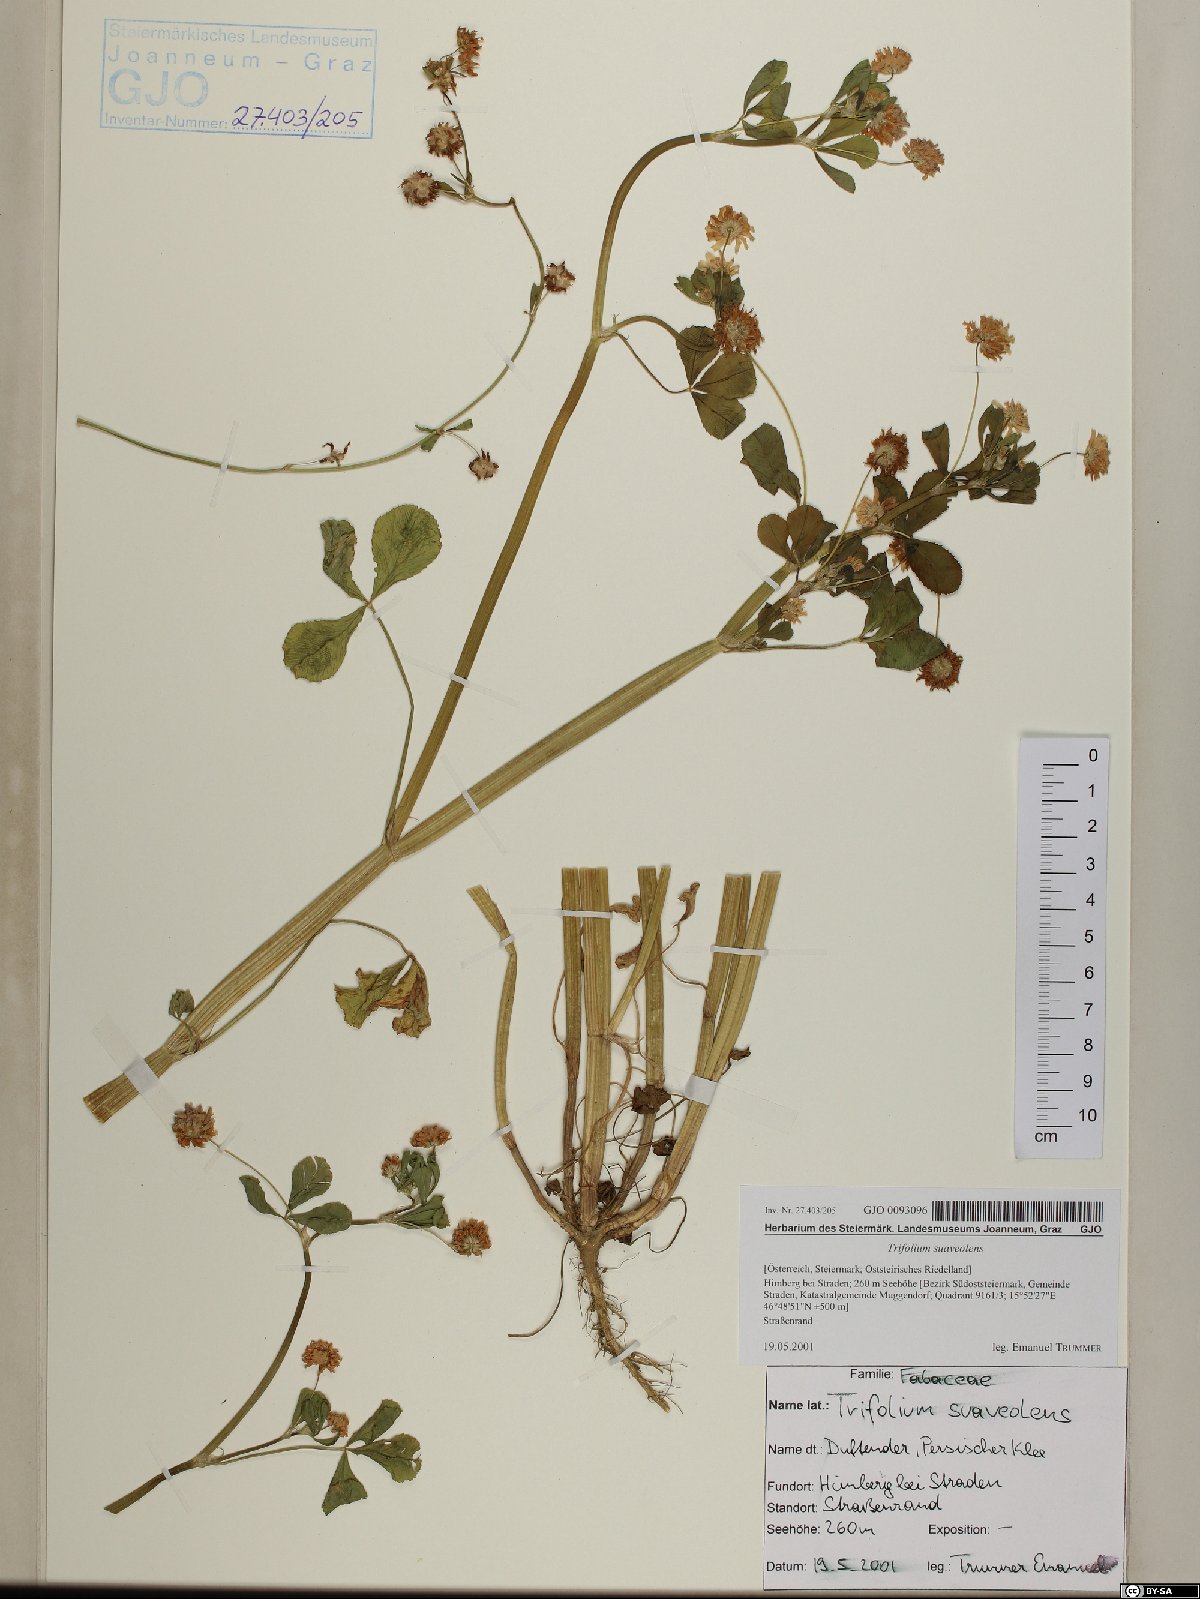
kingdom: Plantae
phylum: Tracheophyta
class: Magnoliopsida
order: Fabales
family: Fabaceae
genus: Trifolium
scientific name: Trifolium resupinatum
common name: Reversed clover
